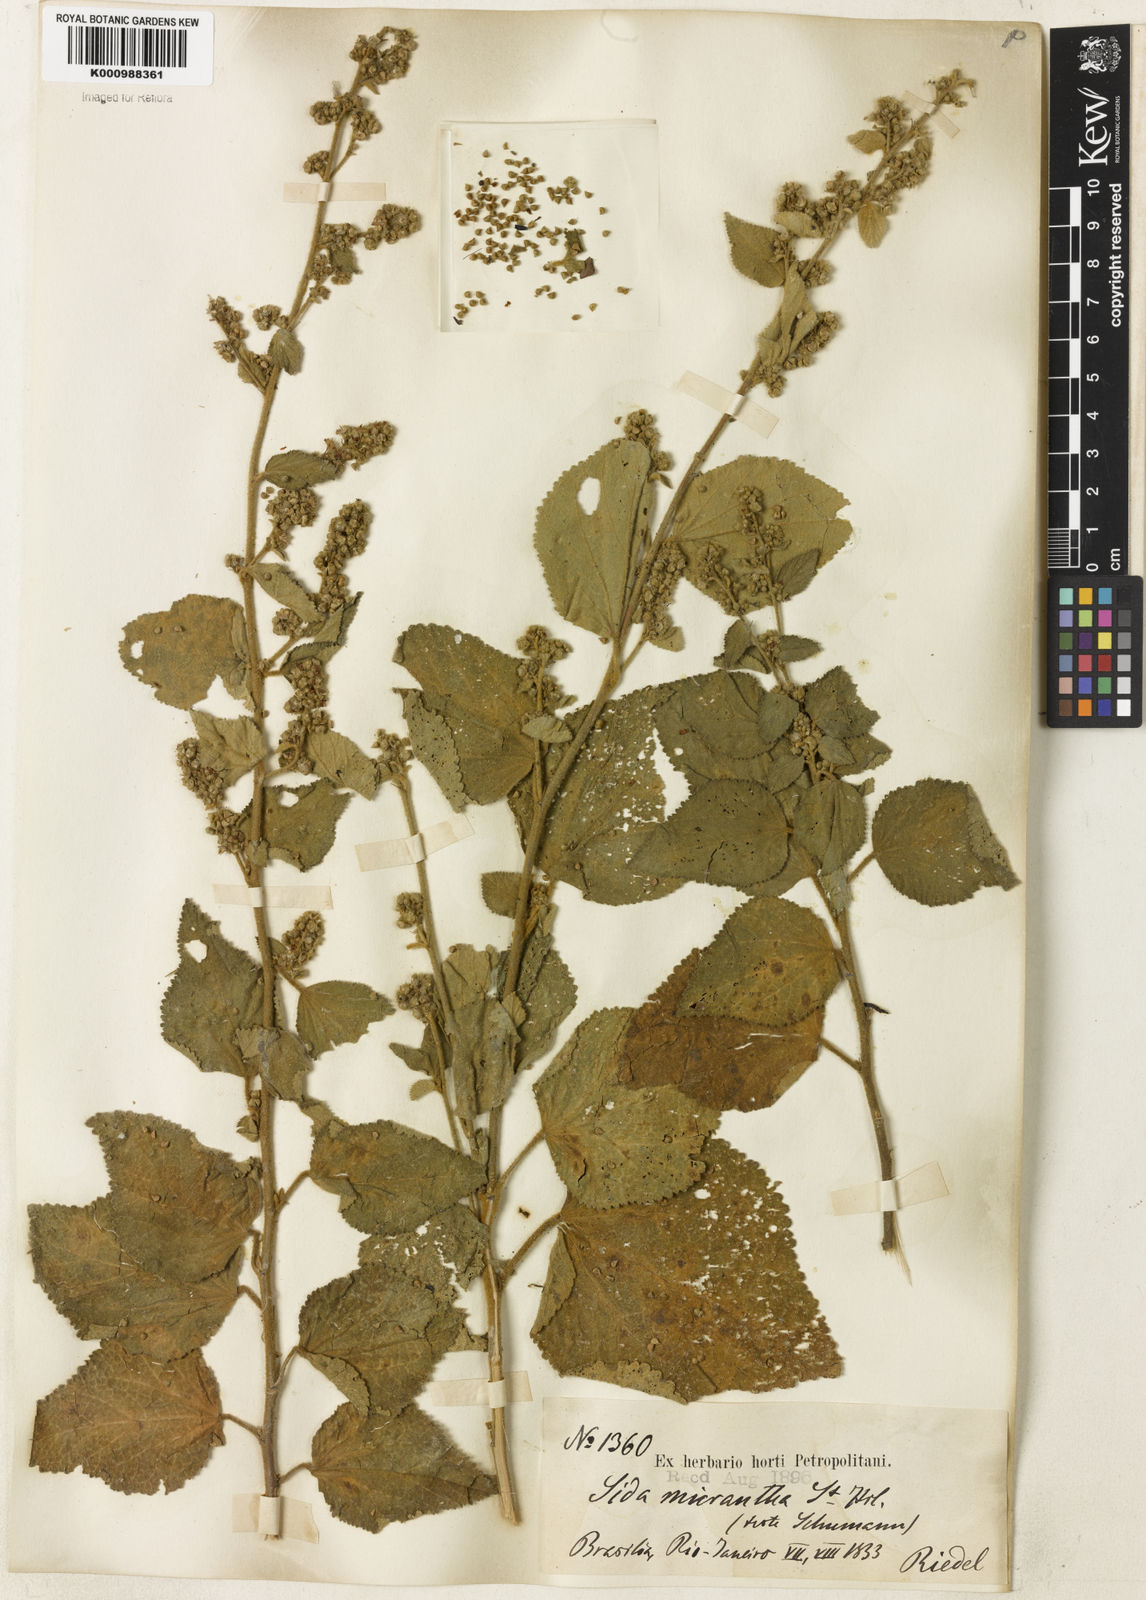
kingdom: Plantae
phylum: Tracheophyta
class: Magnoliopsida
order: Malvales
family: Malvaceae
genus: Sidastrum
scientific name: Sidastrum micranthum
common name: Dainty sandmallow
